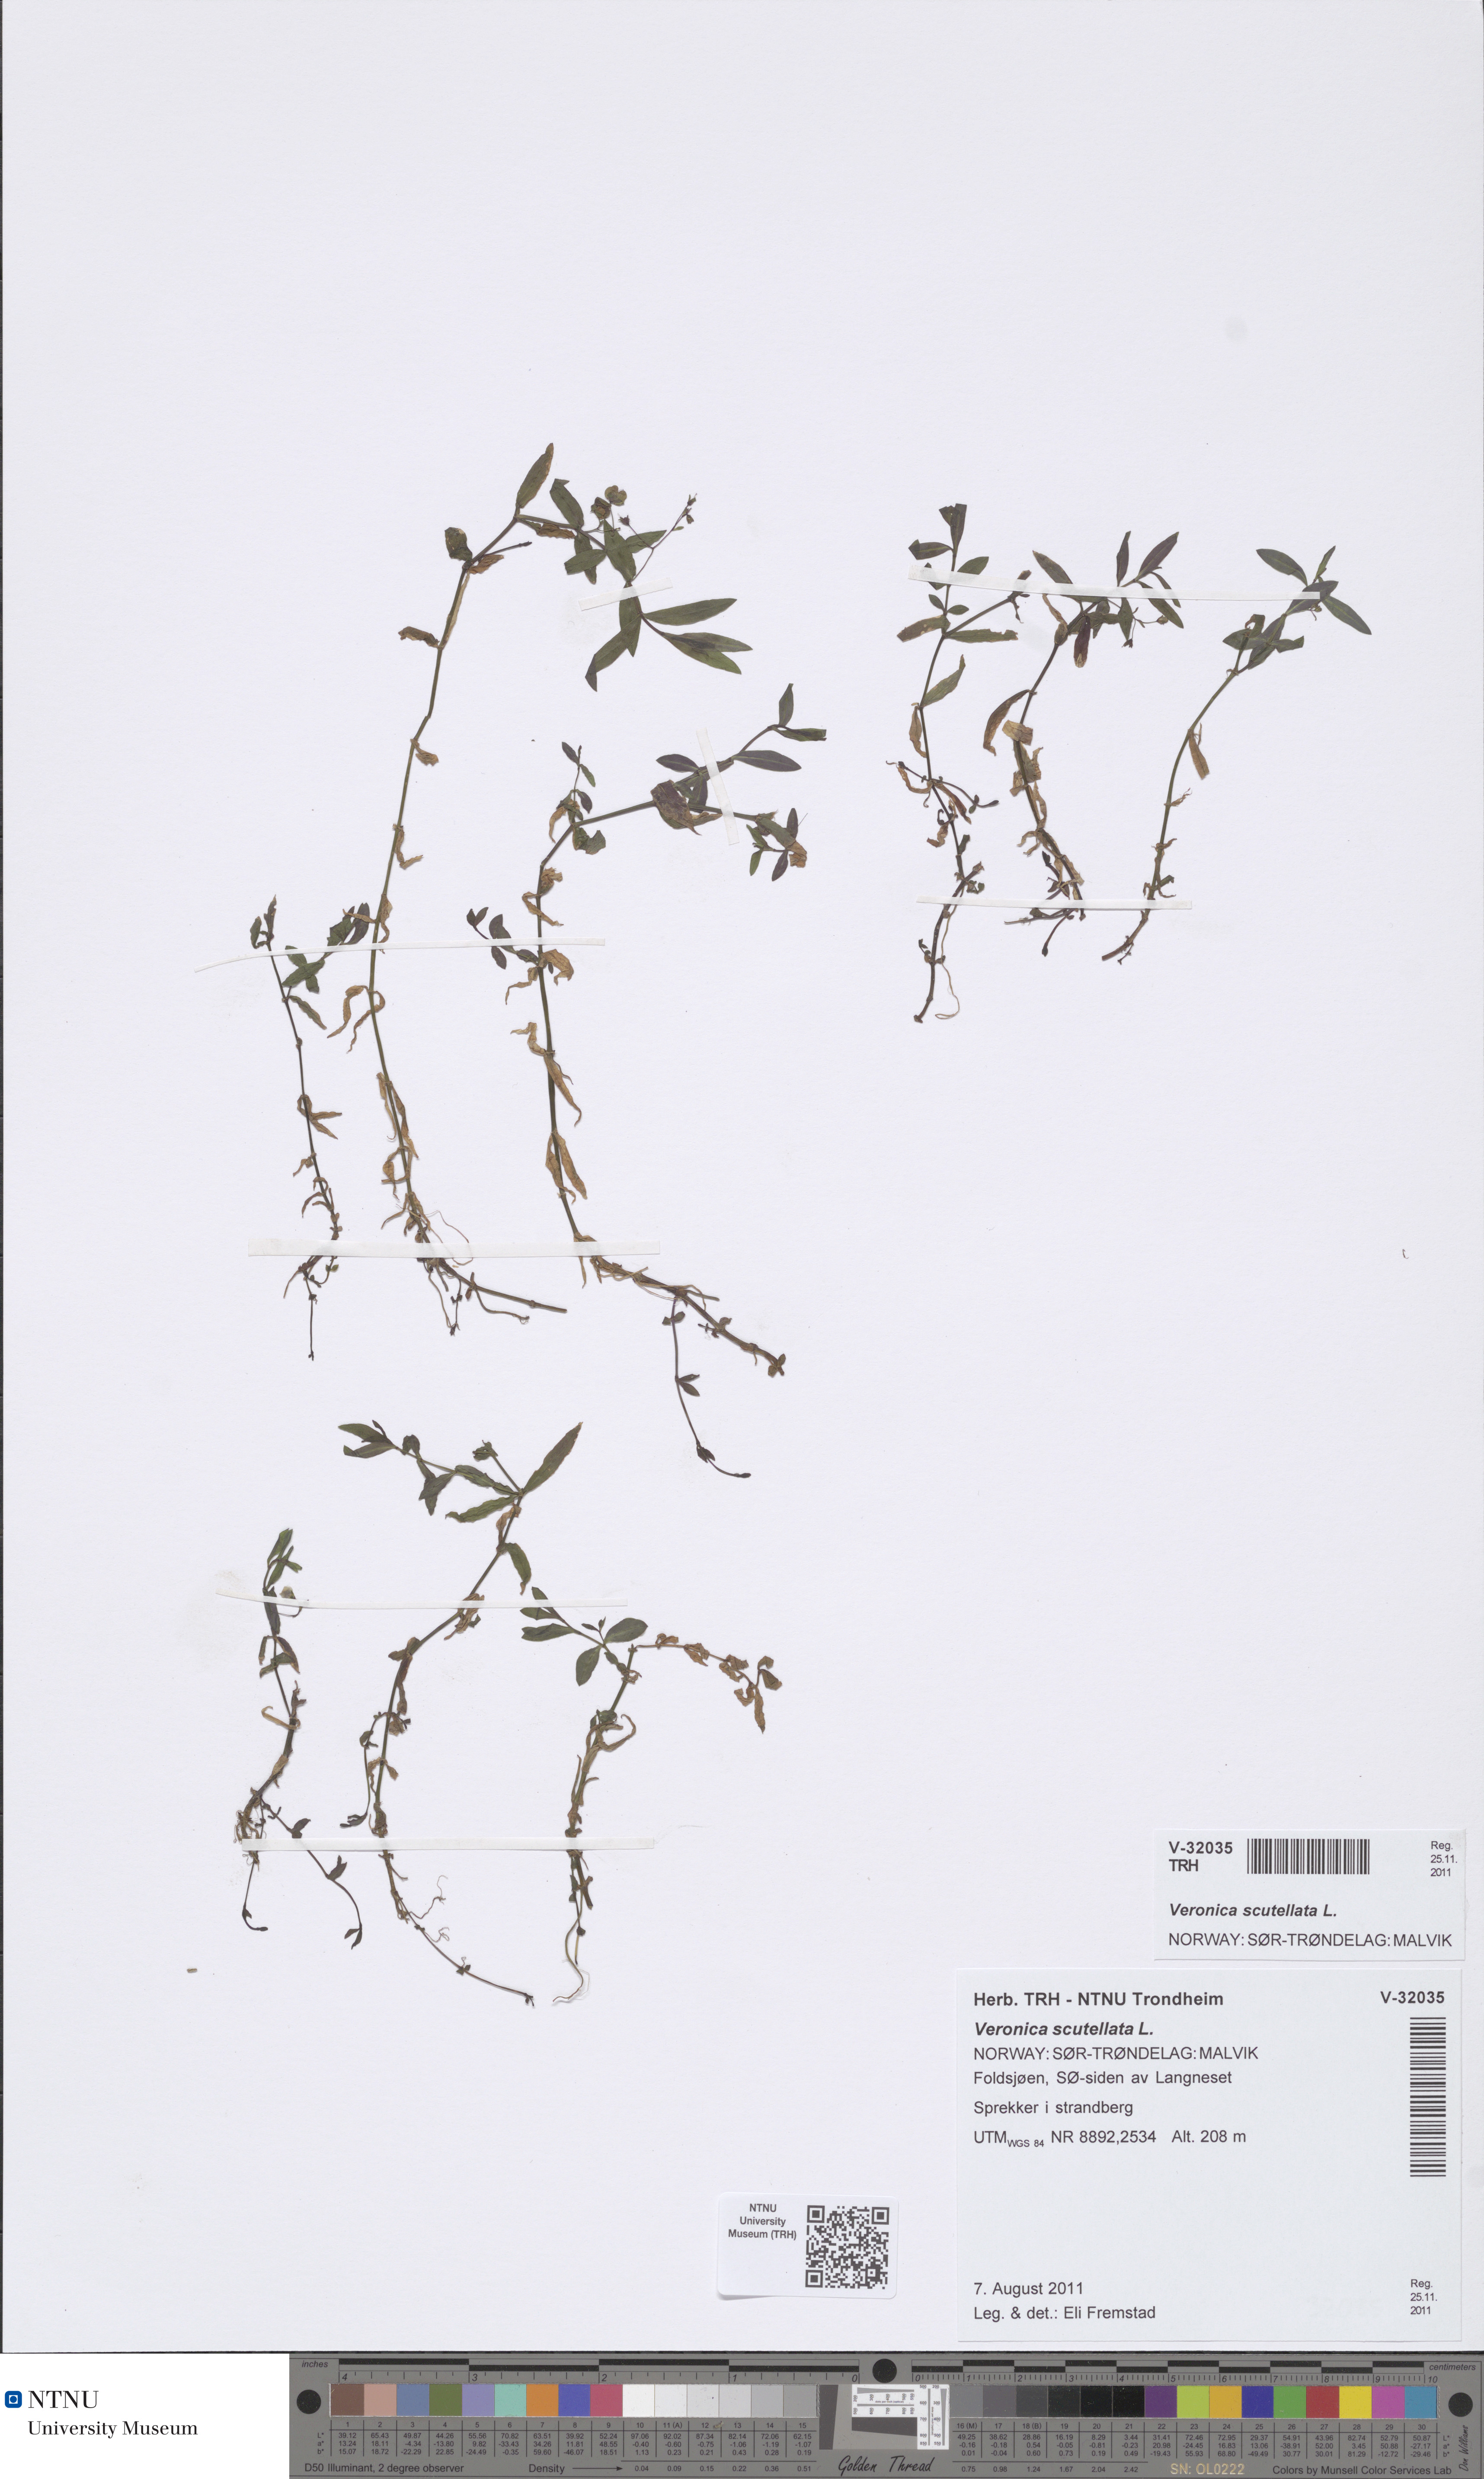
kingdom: Plantae
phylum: Tracheophyta
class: Magnoliopsida
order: Lamiales
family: Plantaginaceae
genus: Veronica
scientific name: Veronica scutellata
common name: Marsh speedwell
